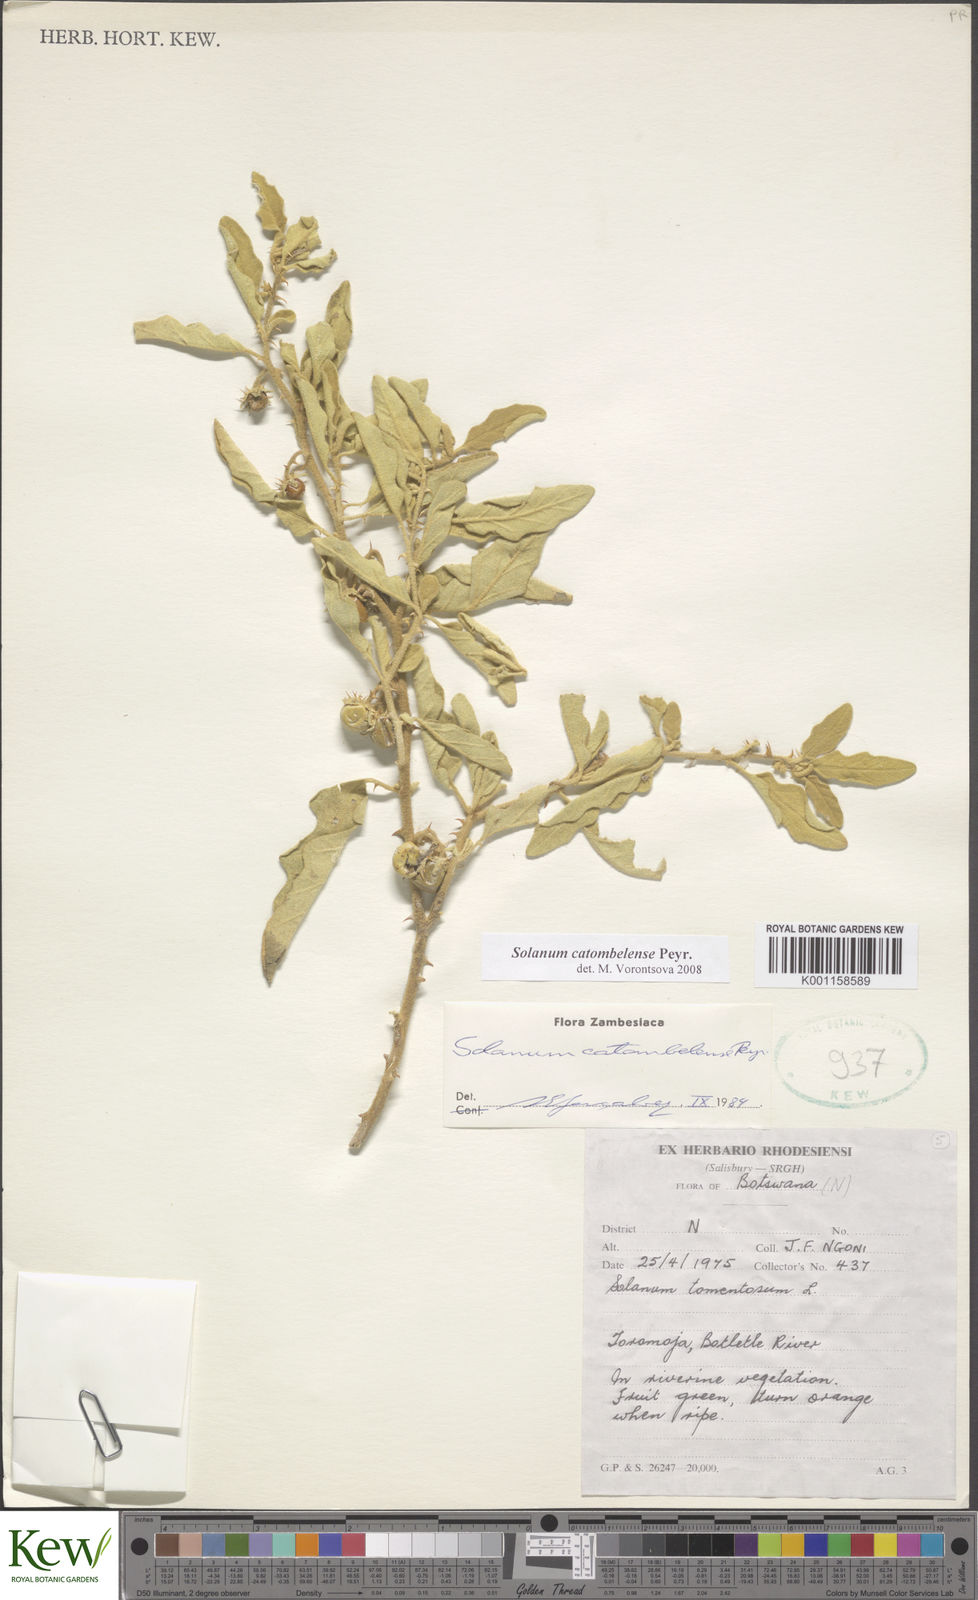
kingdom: Plantae
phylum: Tracheophyta
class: Magnoliopsida
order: Solanales
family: Solanaceae
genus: Solanum
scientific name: Solanum catombelense
